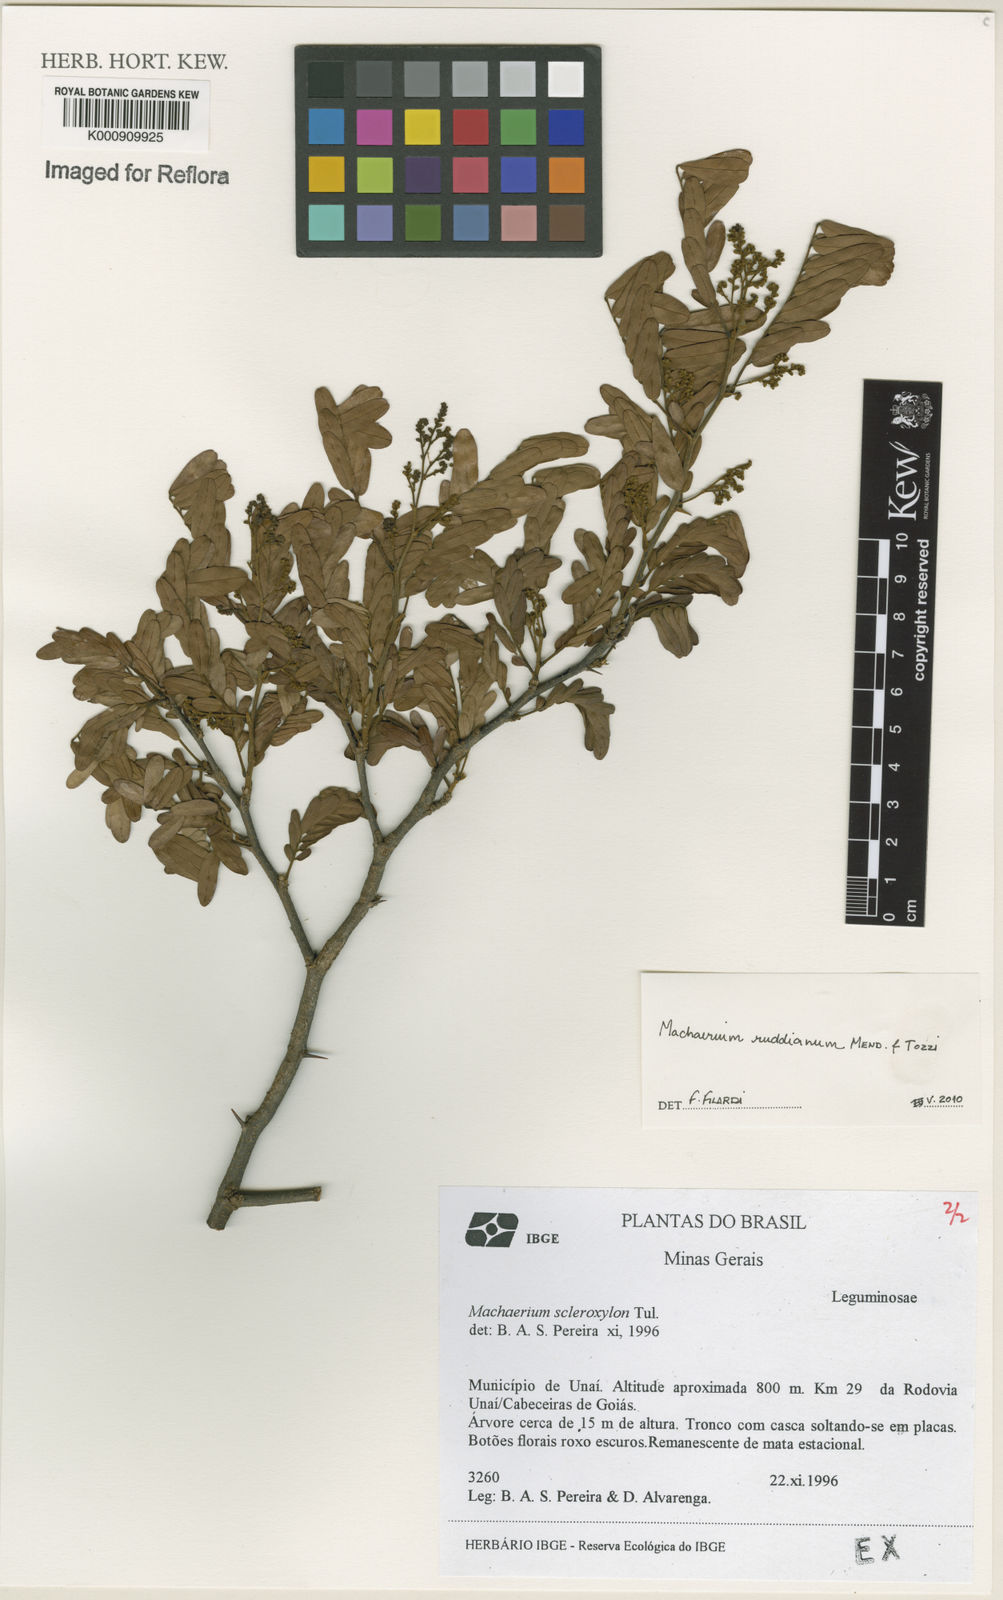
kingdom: Plantae
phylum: Tracheophyta
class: Magnoliopsida
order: Fabales
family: Fabaceae
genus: Machaerium
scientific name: Machaerium
